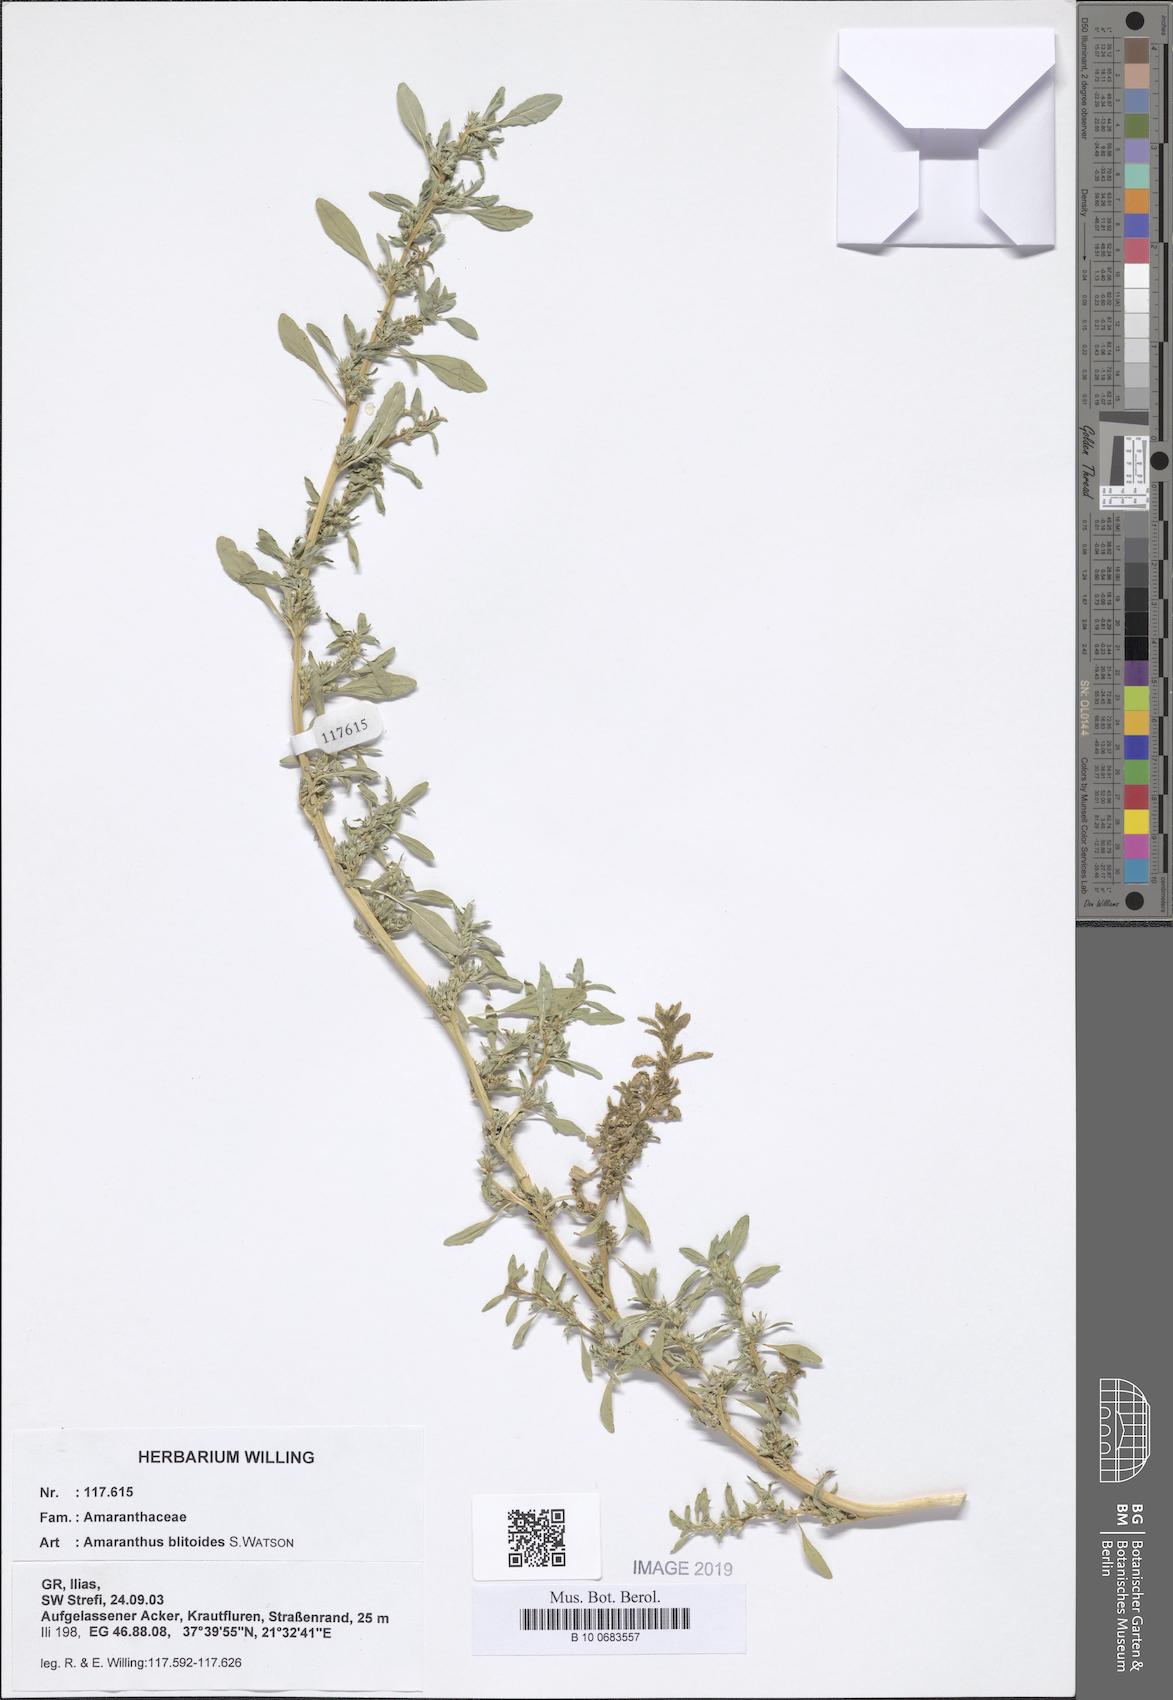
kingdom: Plantae
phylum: Tracheophyta
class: Magnoliopsida
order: Caryophyllales
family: Amaranthaceae
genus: Amaranthus
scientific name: Amaranthus blitoides
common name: Prostrate pigweed
